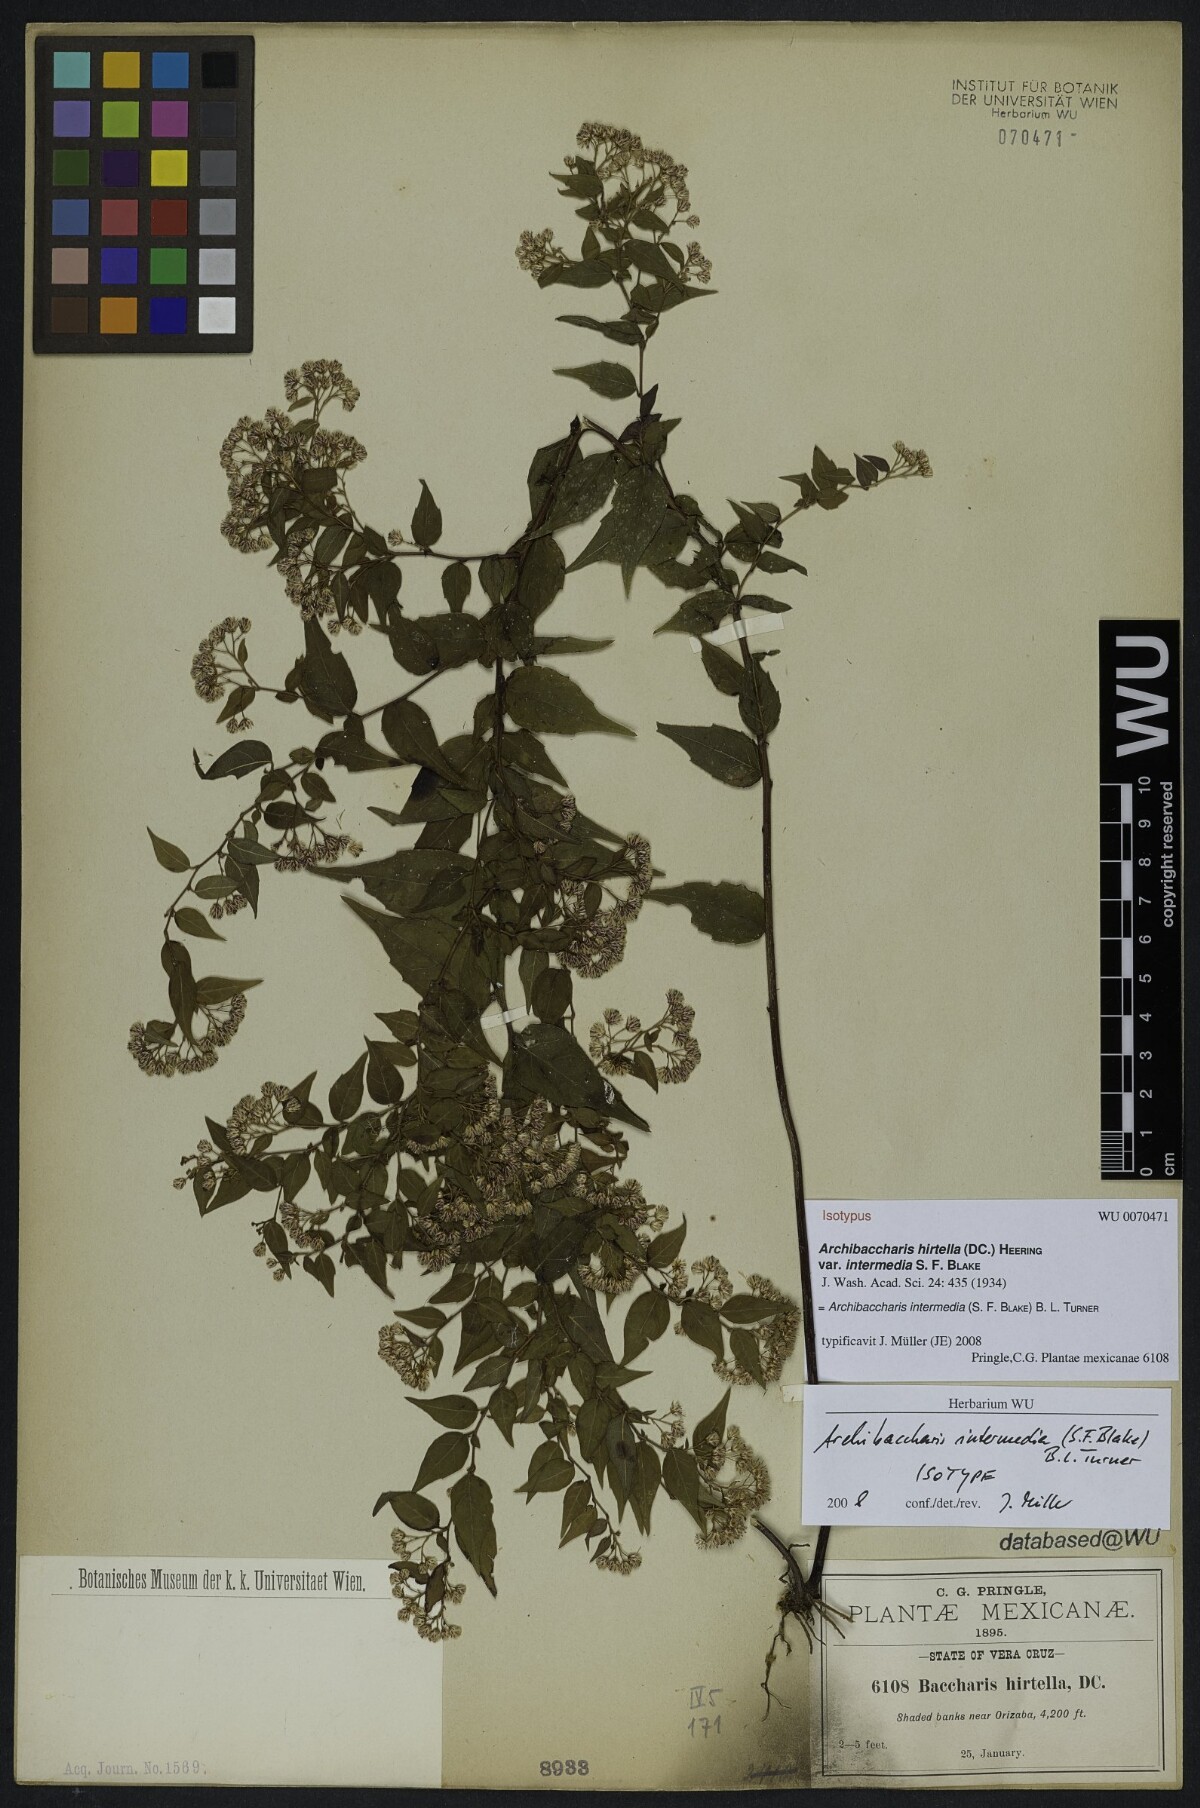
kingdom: Plantae
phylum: Tracheophyta
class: Magnoliopsida
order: Asterales
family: Asteraceae
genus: Archibaccharis
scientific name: Archibaccharis intermedia
